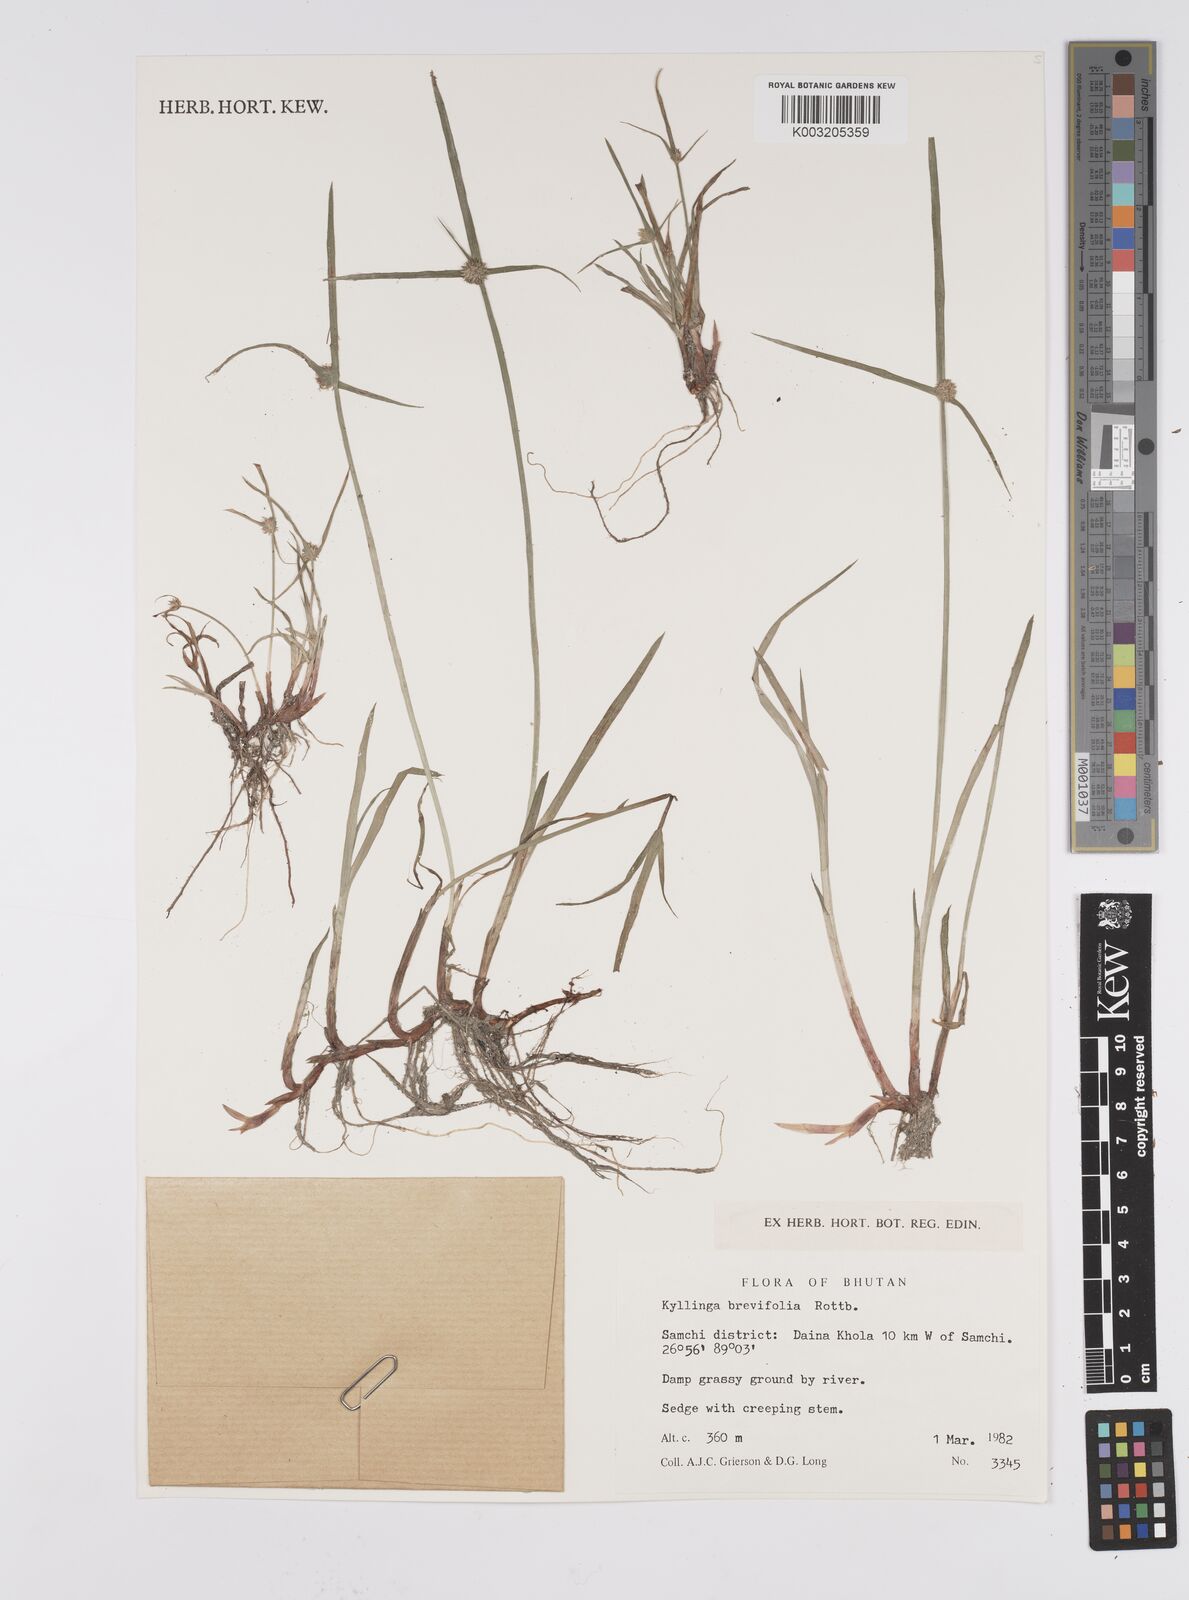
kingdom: Plantae
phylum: Tracheophyta
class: Liliopsida
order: Poales
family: Cyperaceae
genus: Cyperus
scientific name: Cyperus brevifolius
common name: Globe kyllinga
